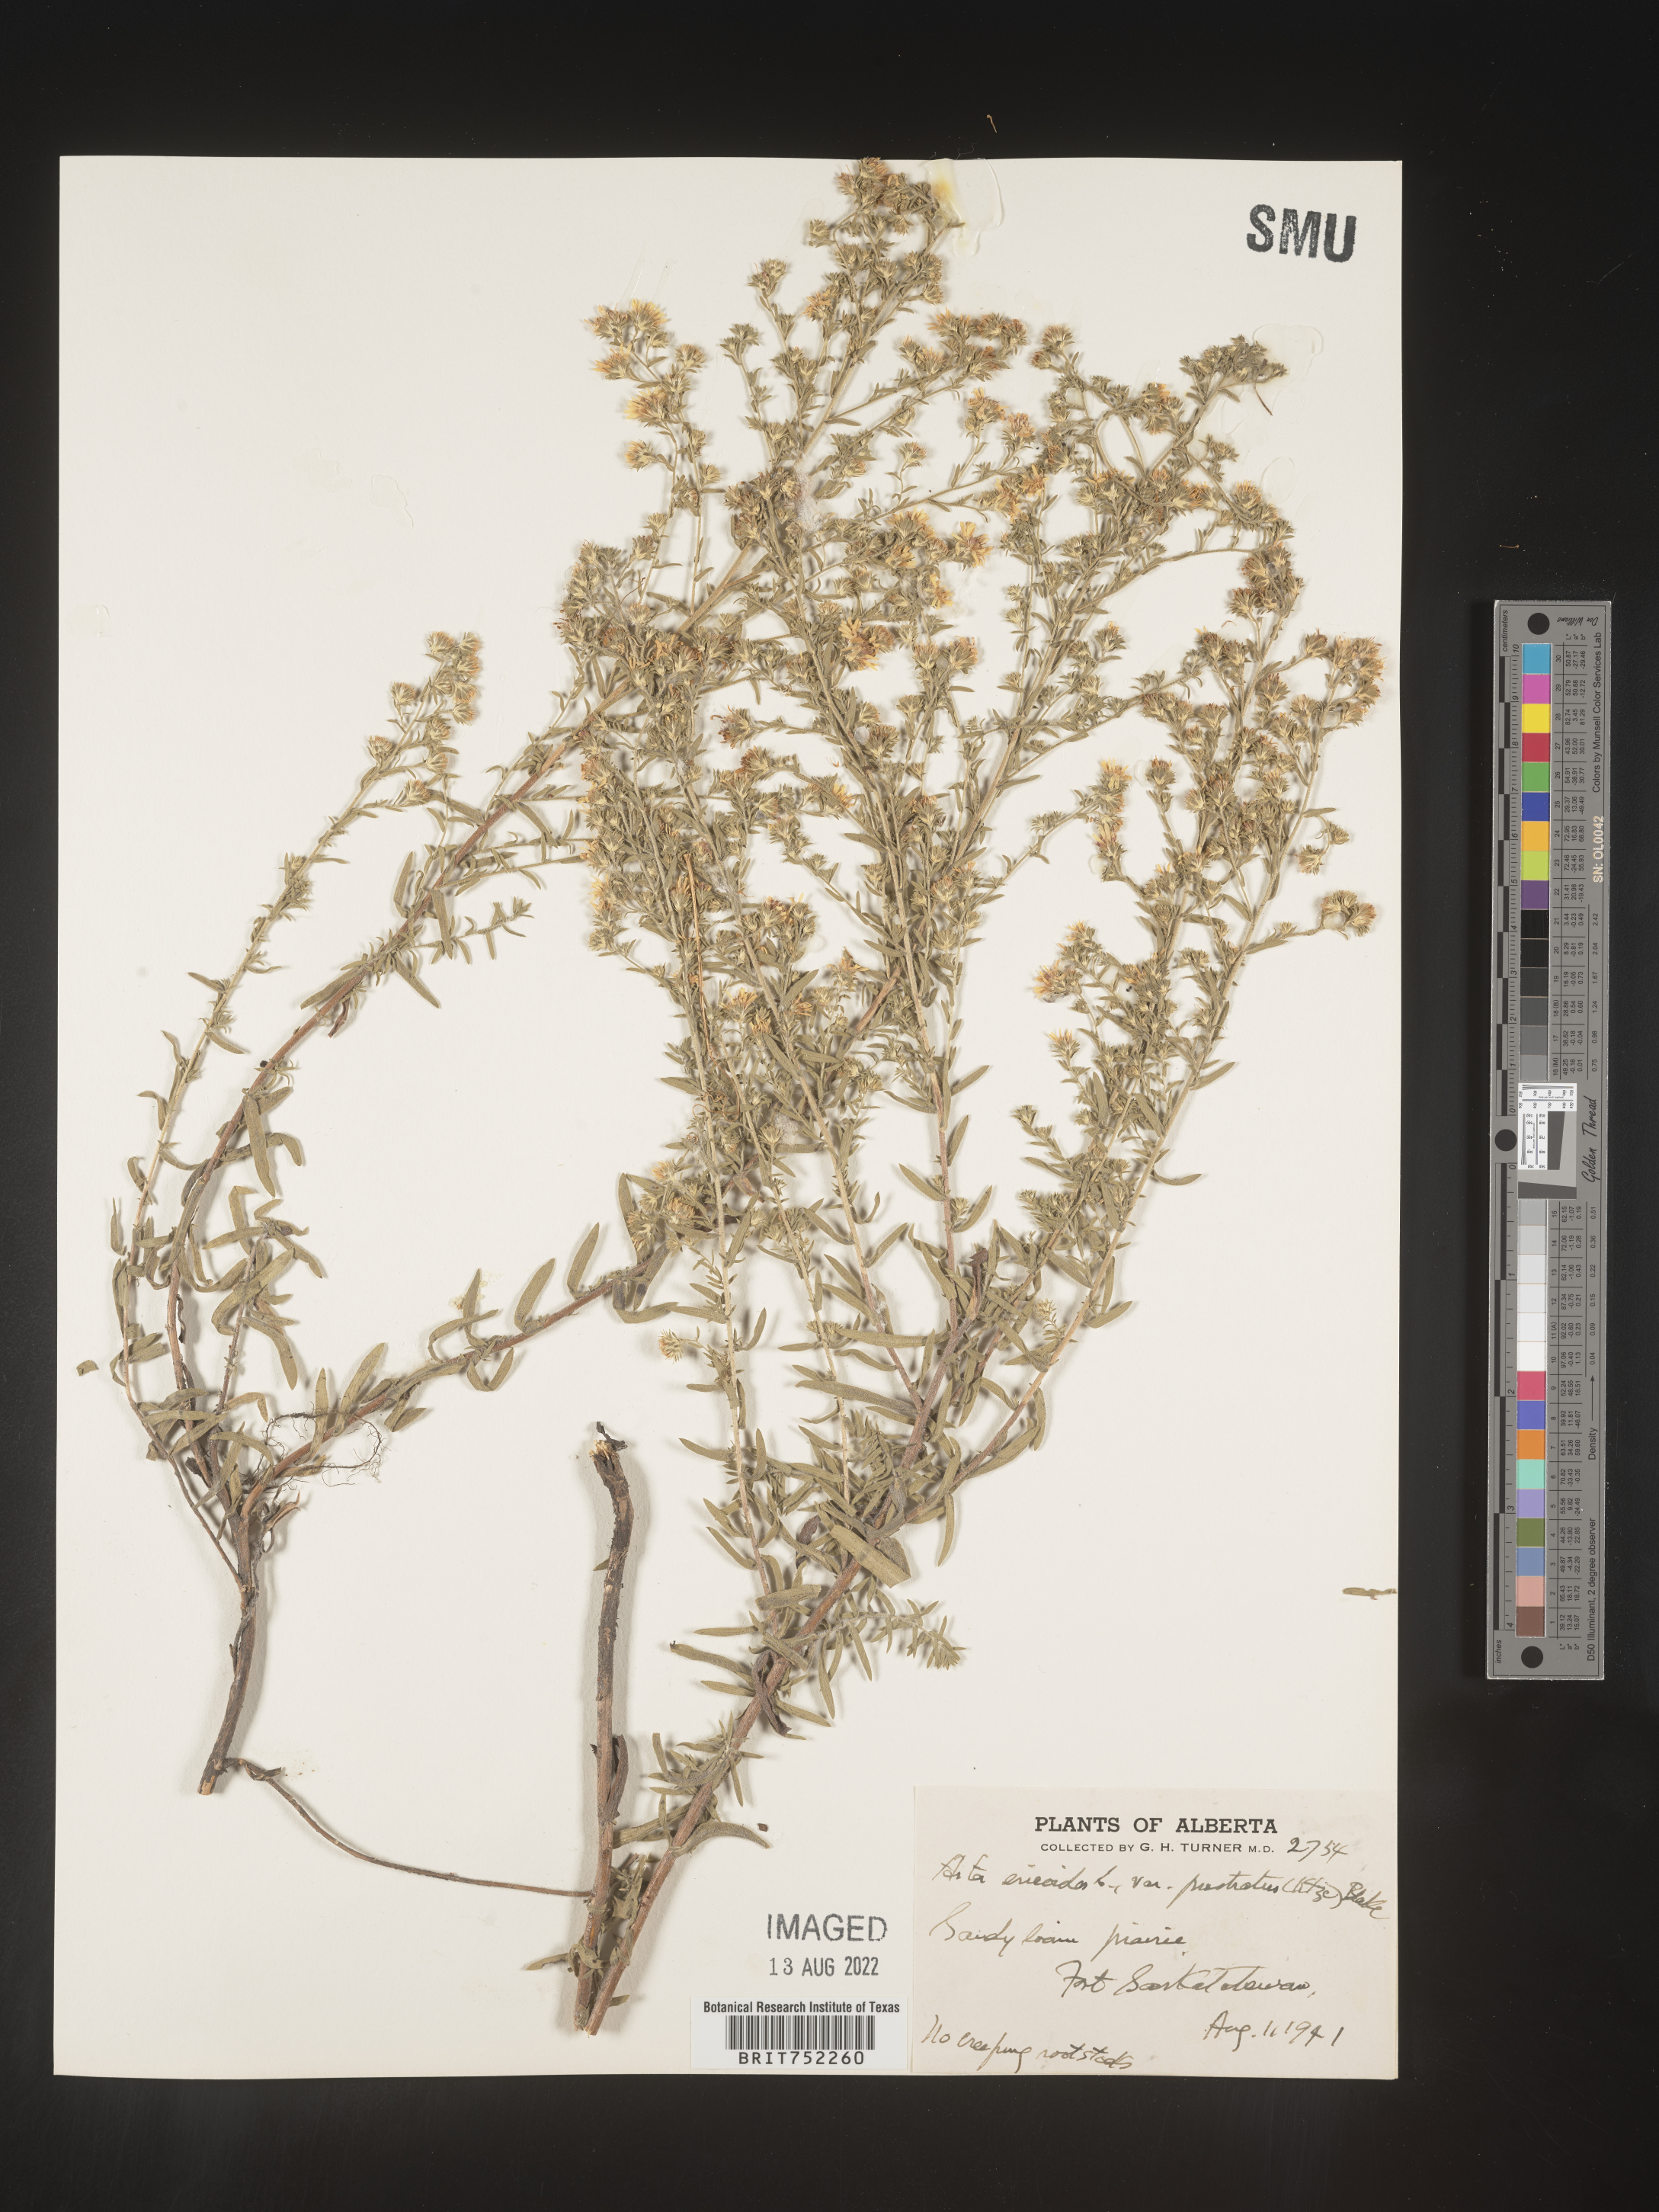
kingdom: Plantae
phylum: Tracheophyta
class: Magnoliopsida
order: Asterales
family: Asteraceae
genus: Symphyotrichum
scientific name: Symphyotrichum ericoides
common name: Heath aster
